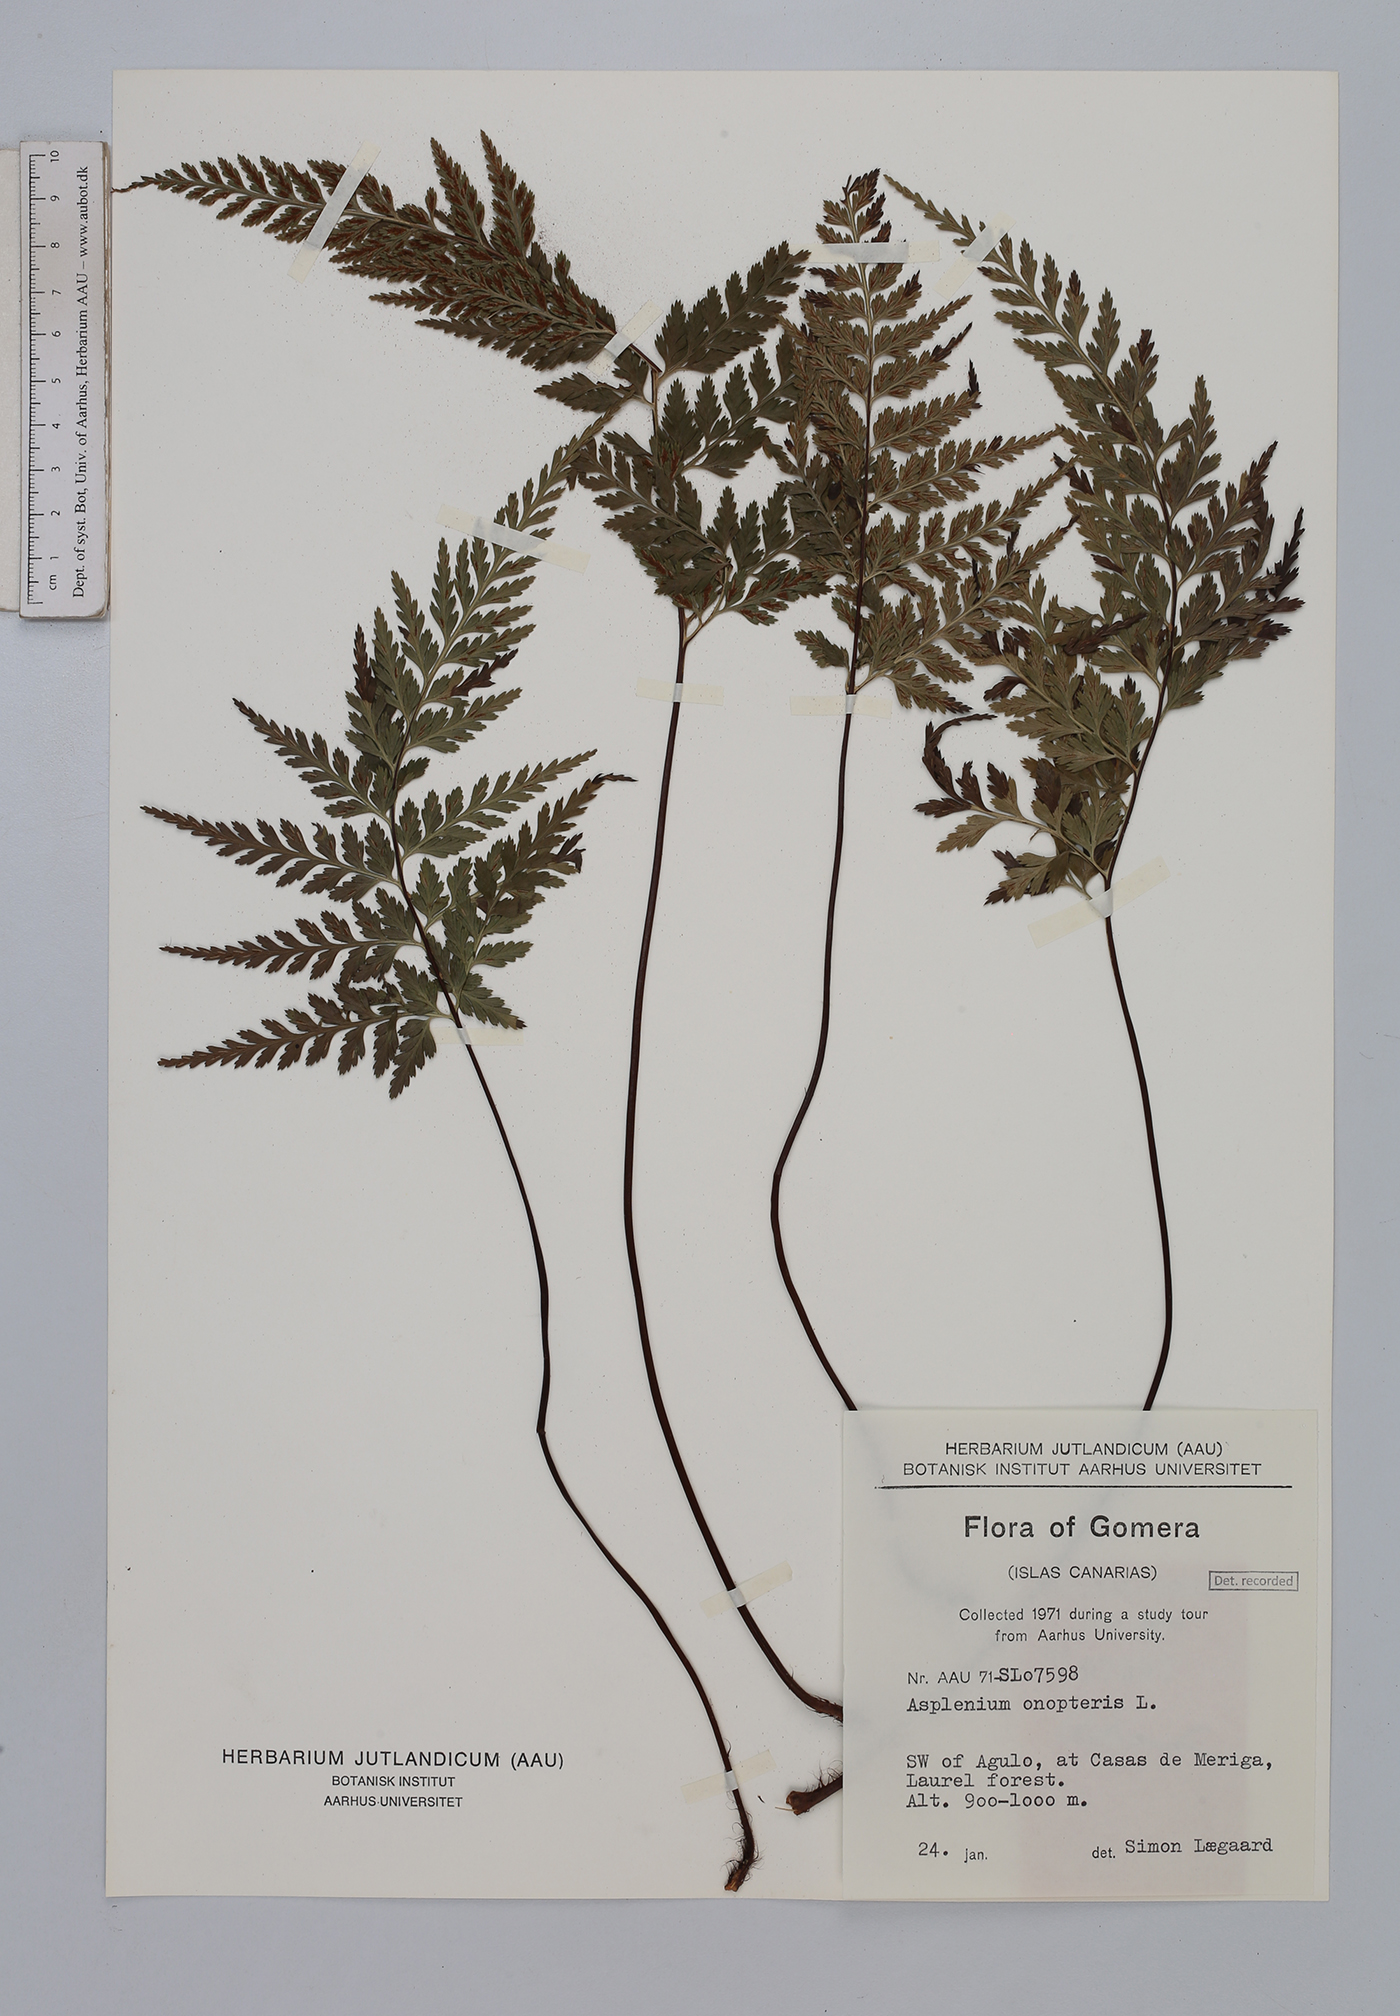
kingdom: Plantae
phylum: Tracheophyta
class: Polypodiopsida
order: Polypodiales
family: Aspleniaceae
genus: Asplenium
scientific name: Asplenium onopteris
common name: Irish spleenwort
